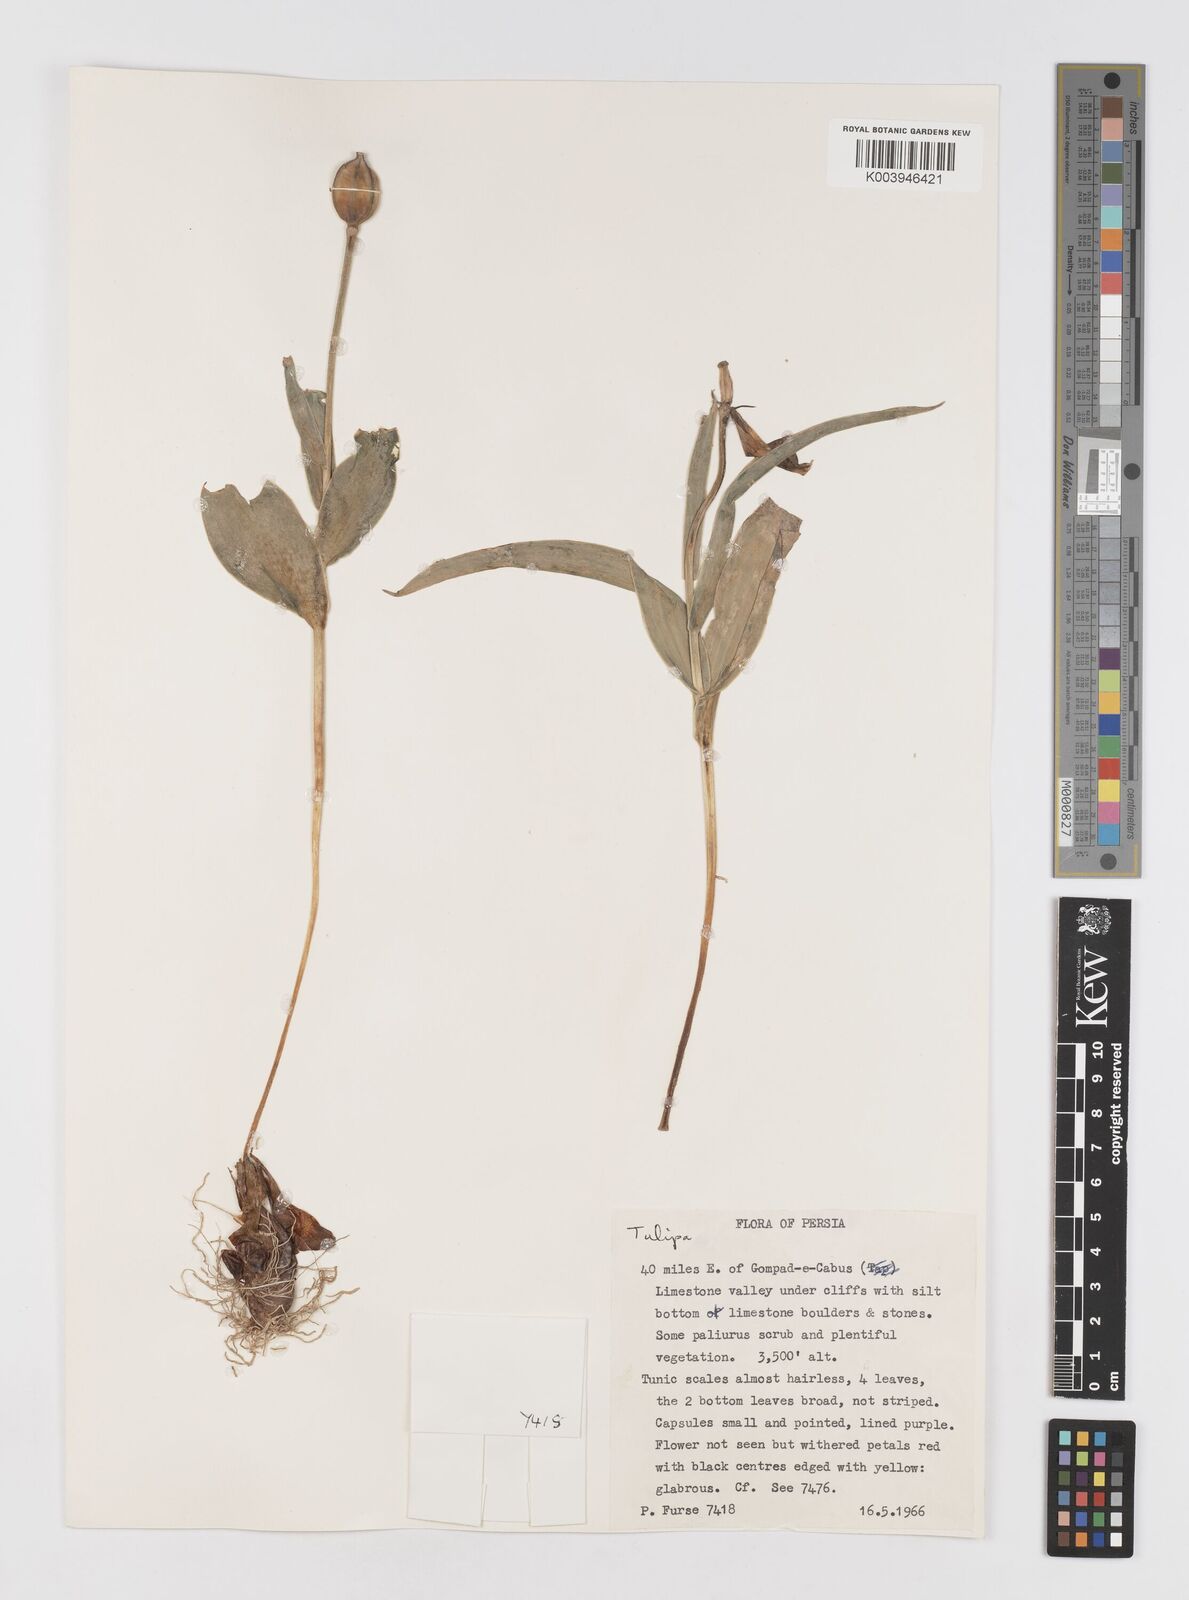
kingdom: Plantae
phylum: Tracheophyta
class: Liliopsida
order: Liliales
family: Liliaceae
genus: Tulipa
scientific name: Tulipa
